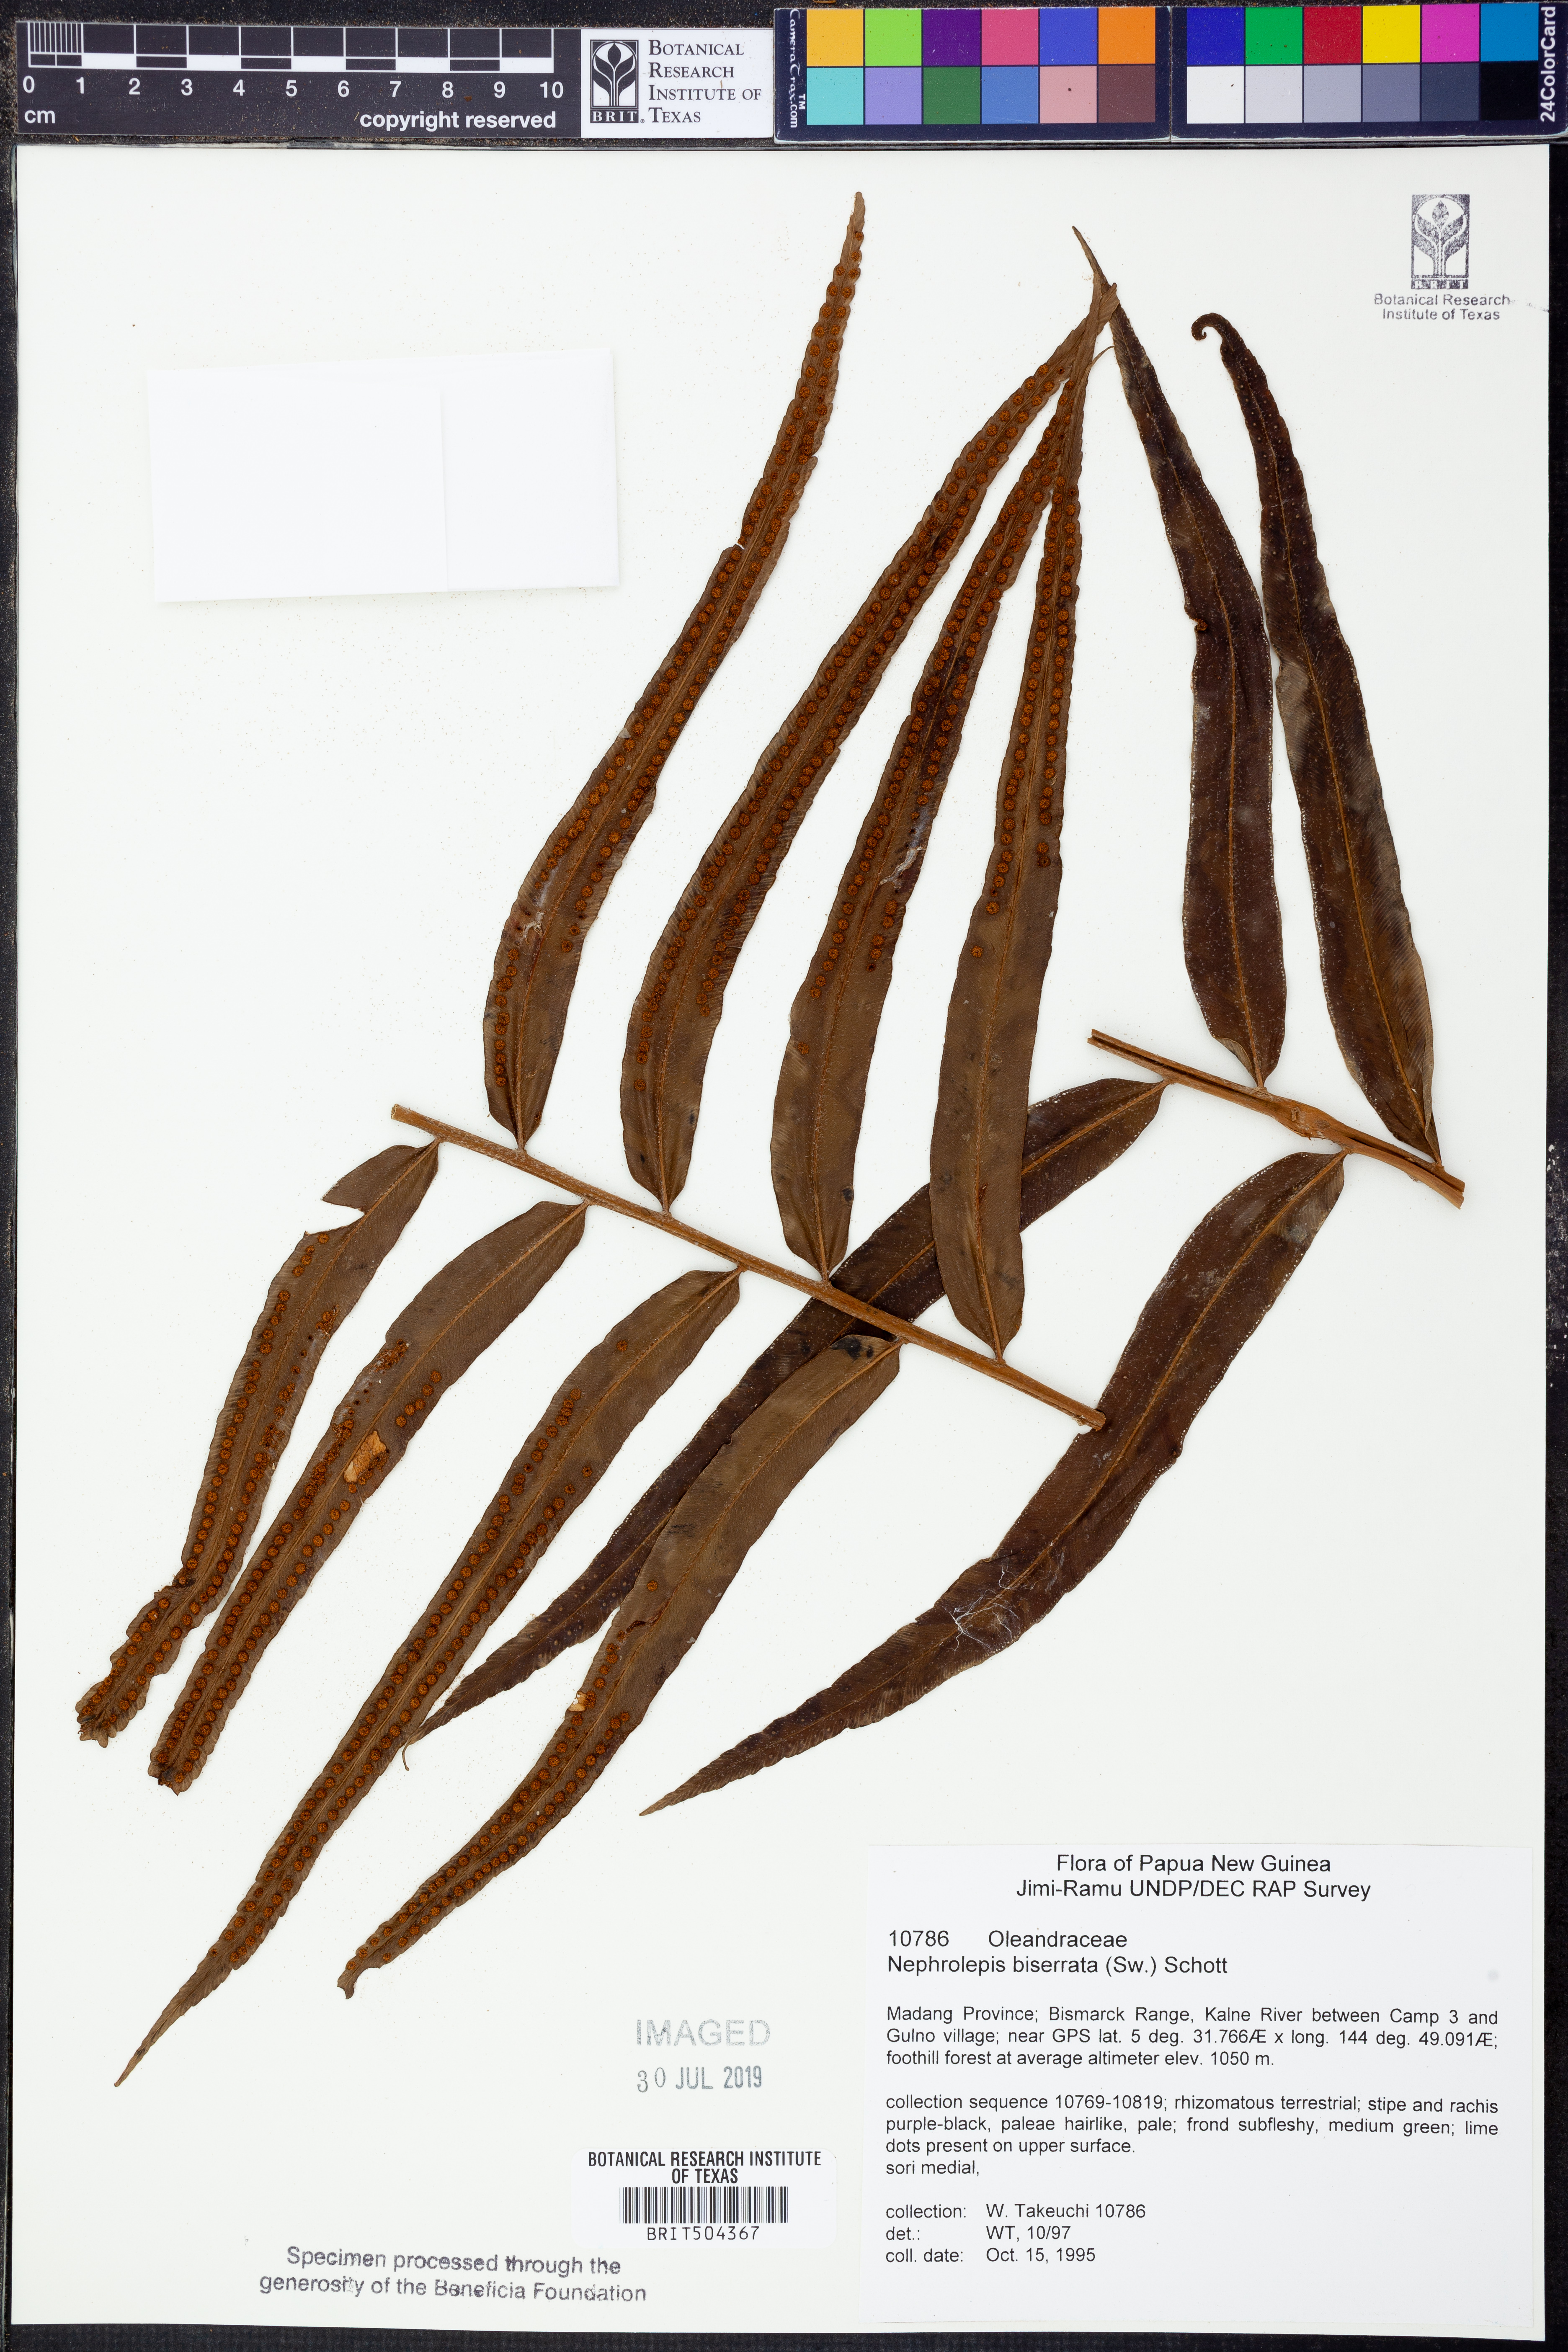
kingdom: Plantae
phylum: Tracheophyta
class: Polypodiopsida
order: Polypodiales
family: Nephrolepidaceae
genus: Nephrolepis
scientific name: Nephrolepis biserrata
